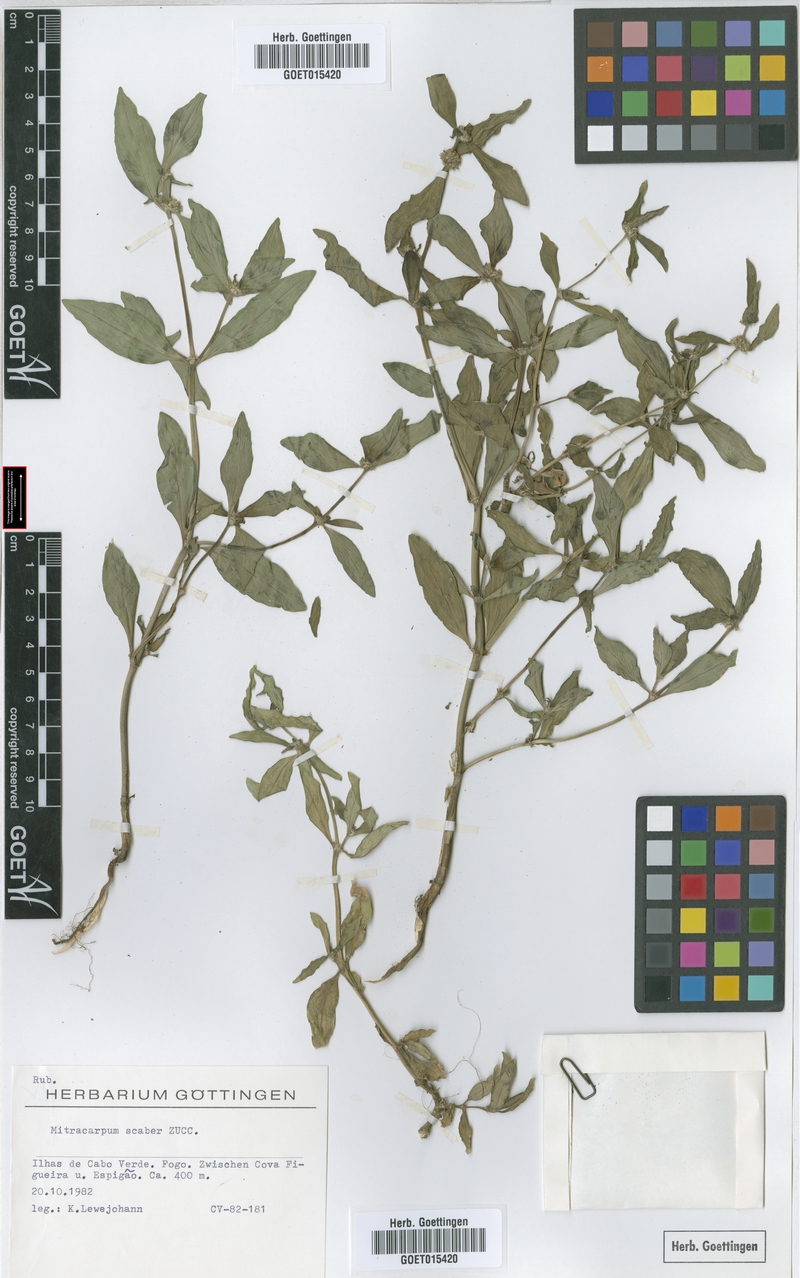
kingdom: Plantae
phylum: Tracheophyta
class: Magnoliopsida
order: Gentianales
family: Rubiaceae
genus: Mitracarpus
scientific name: Mitracarpus hirtus
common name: Tropical girdlepod
